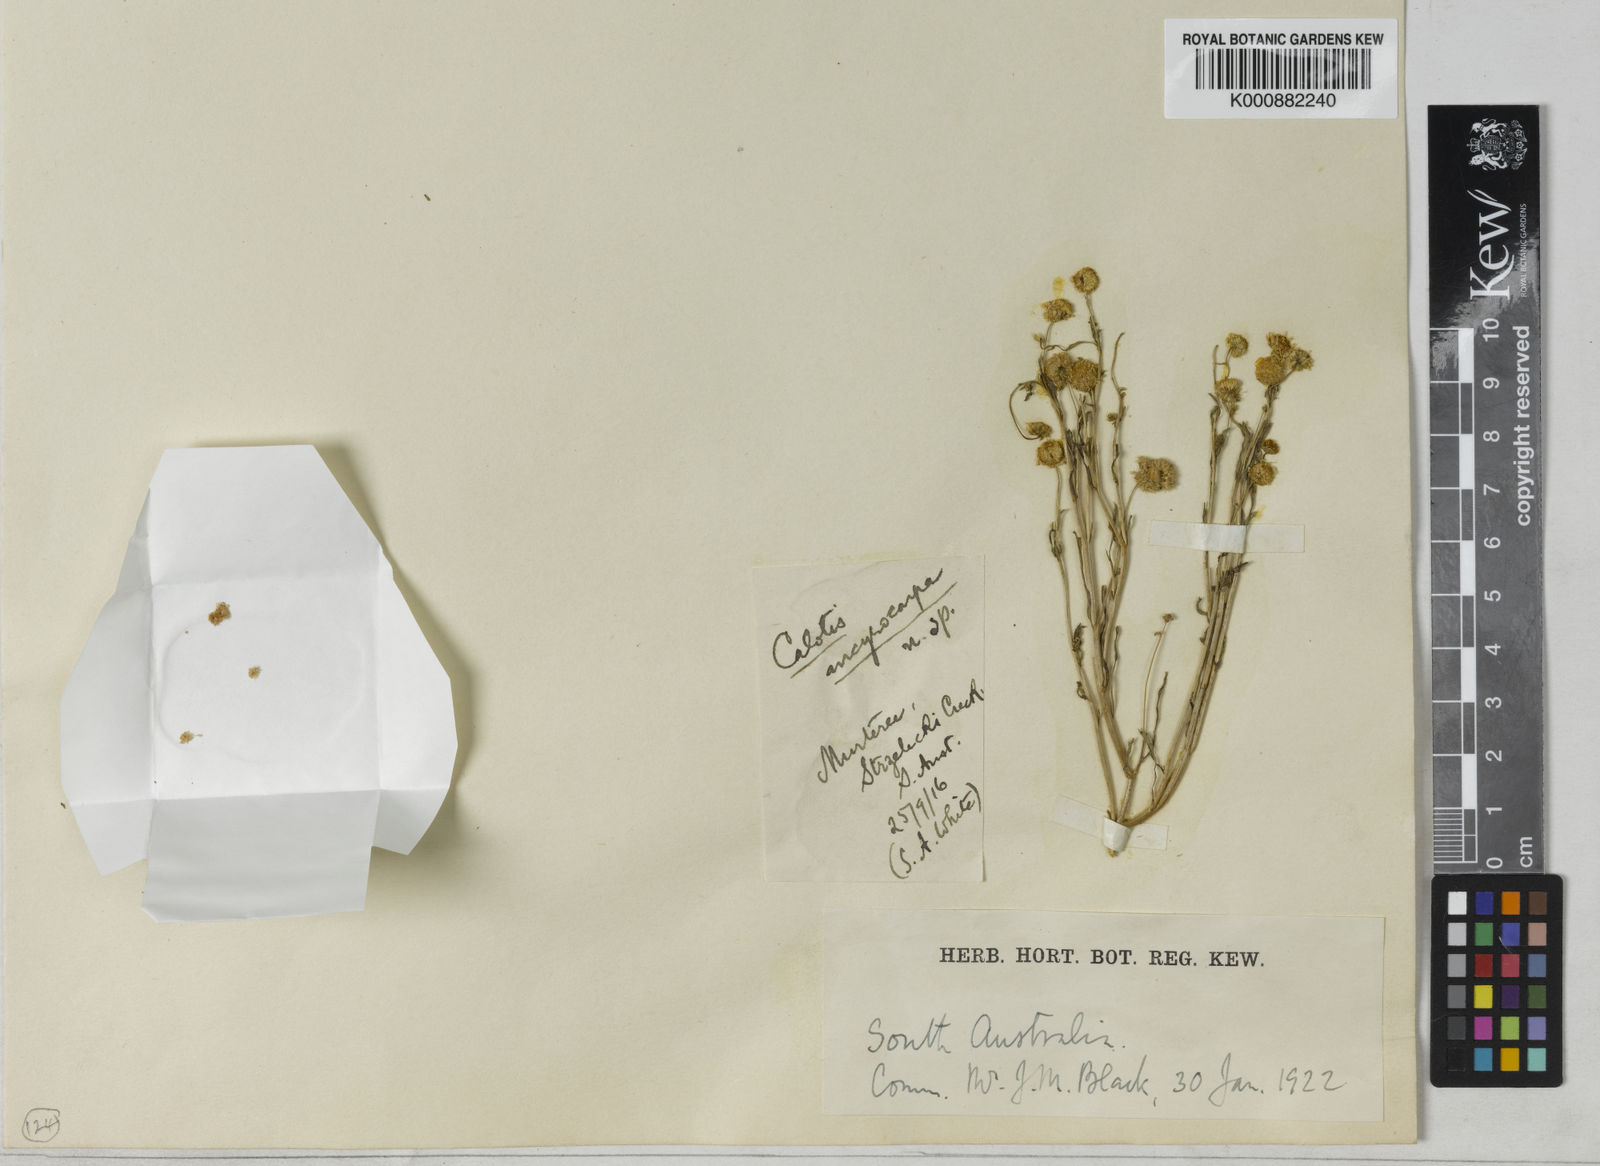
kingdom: Plantae
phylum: Tracheophyta
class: Magnoliopsida
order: Asterales
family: Asteraceae
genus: Calotis
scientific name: Calotis breviradiata
